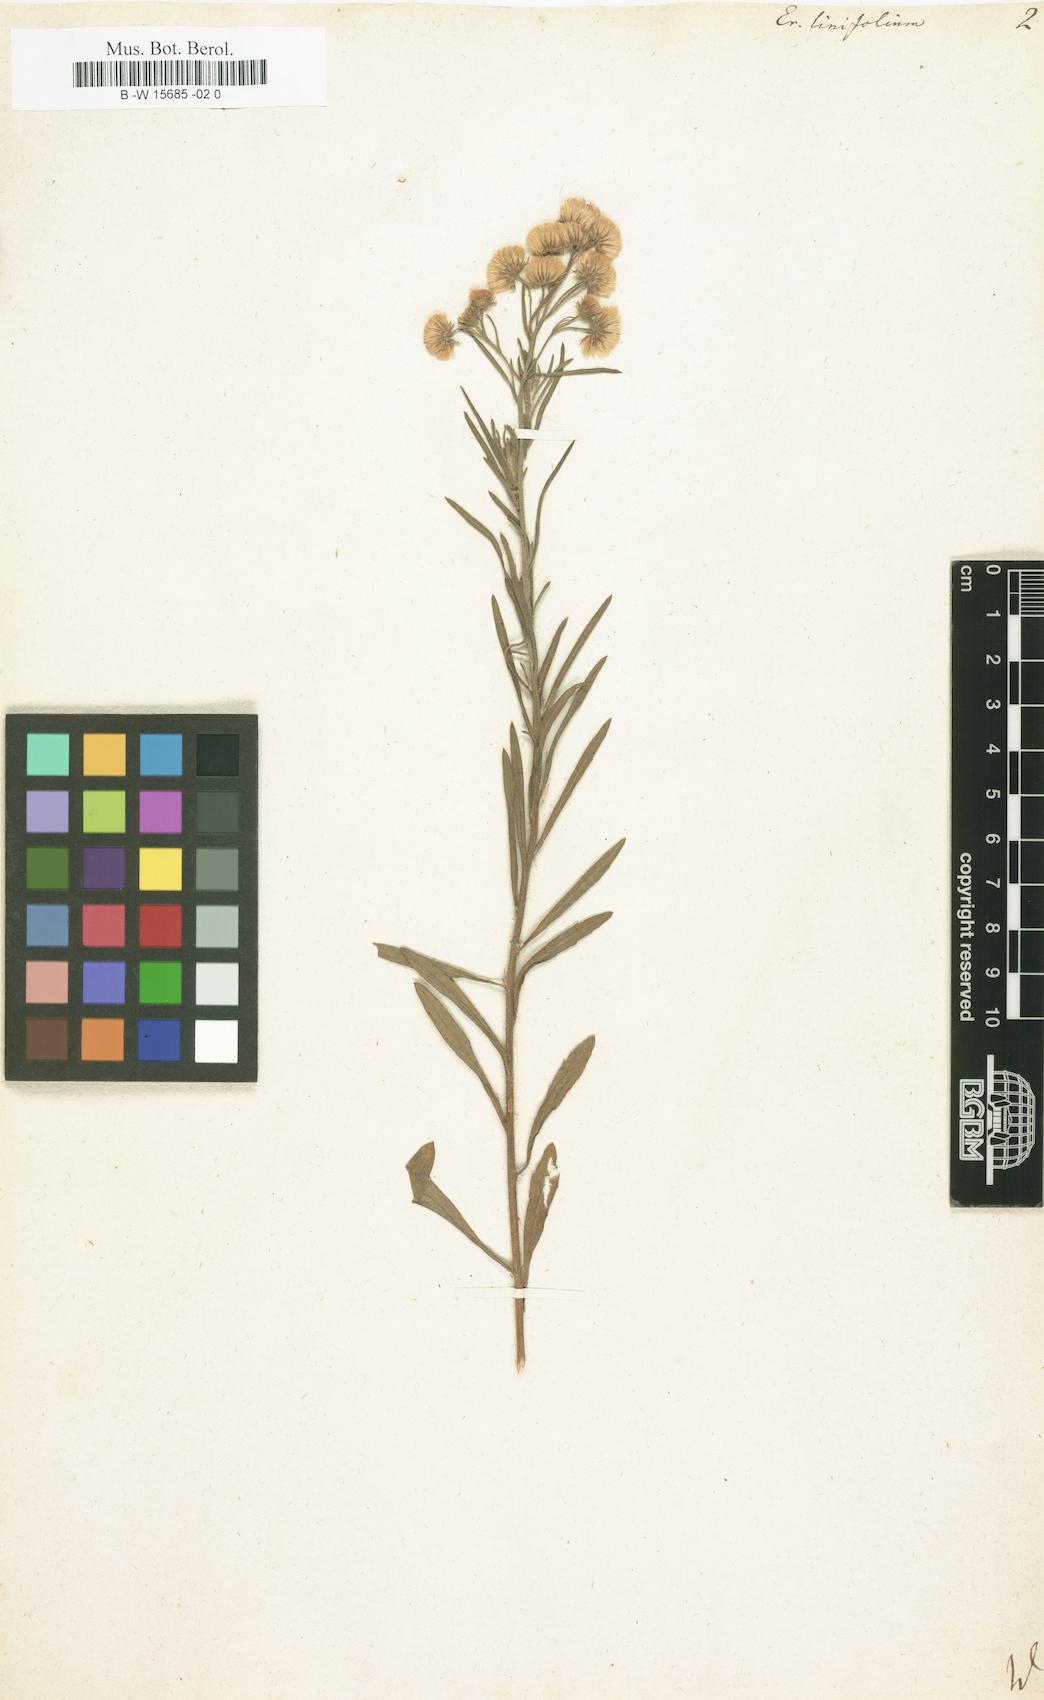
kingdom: Plantae
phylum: Tracheophyta
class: Magnoliopsida
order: Asterales
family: Asteraceae
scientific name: Asteraceae
